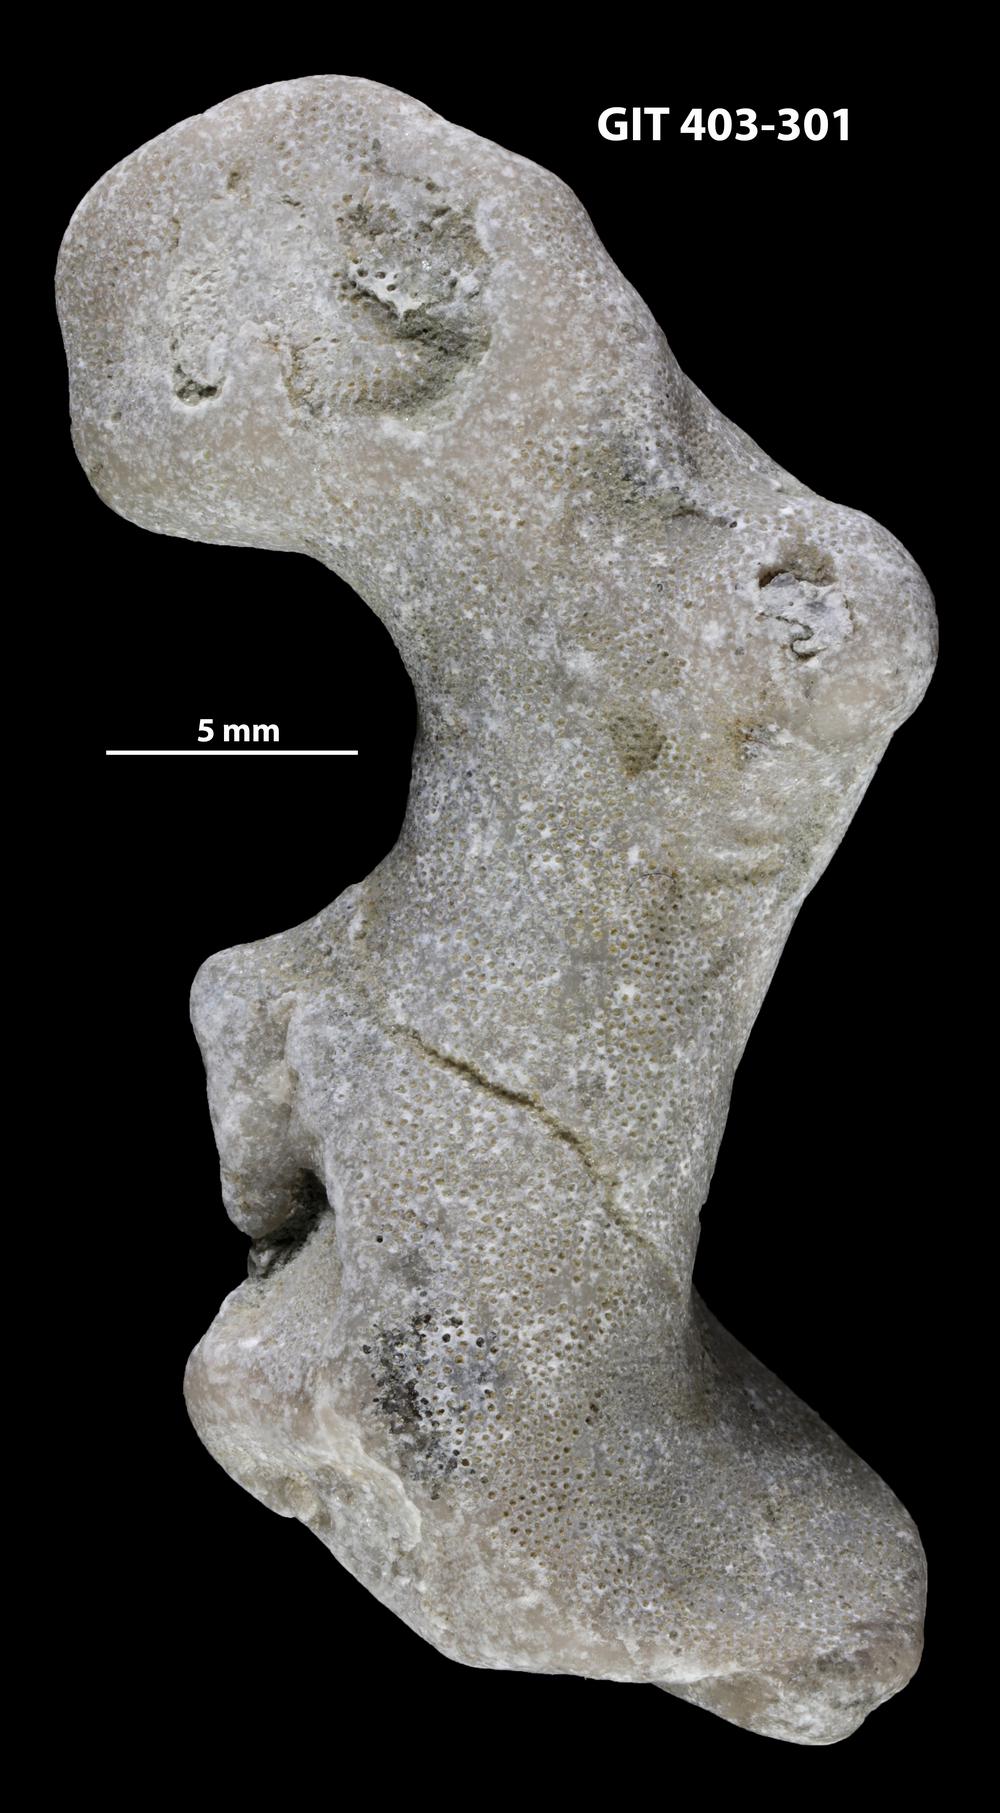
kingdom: Animalia
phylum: Bryozoa
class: Stenolaemata
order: Cystoporida
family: Fistuliporidae
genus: Fistulipora
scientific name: Fistulipora
